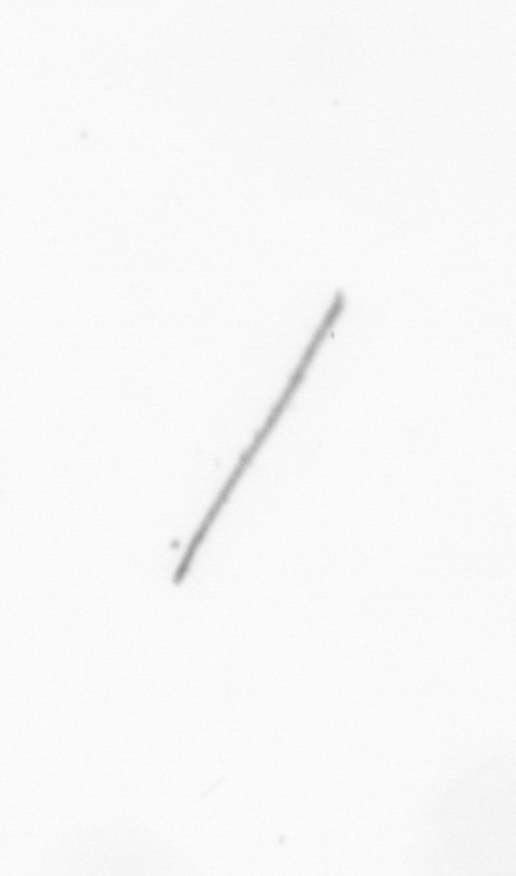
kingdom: Chromista
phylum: Ochrophyta
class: Bacillariophyceae
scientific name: Bacillariophyceae
